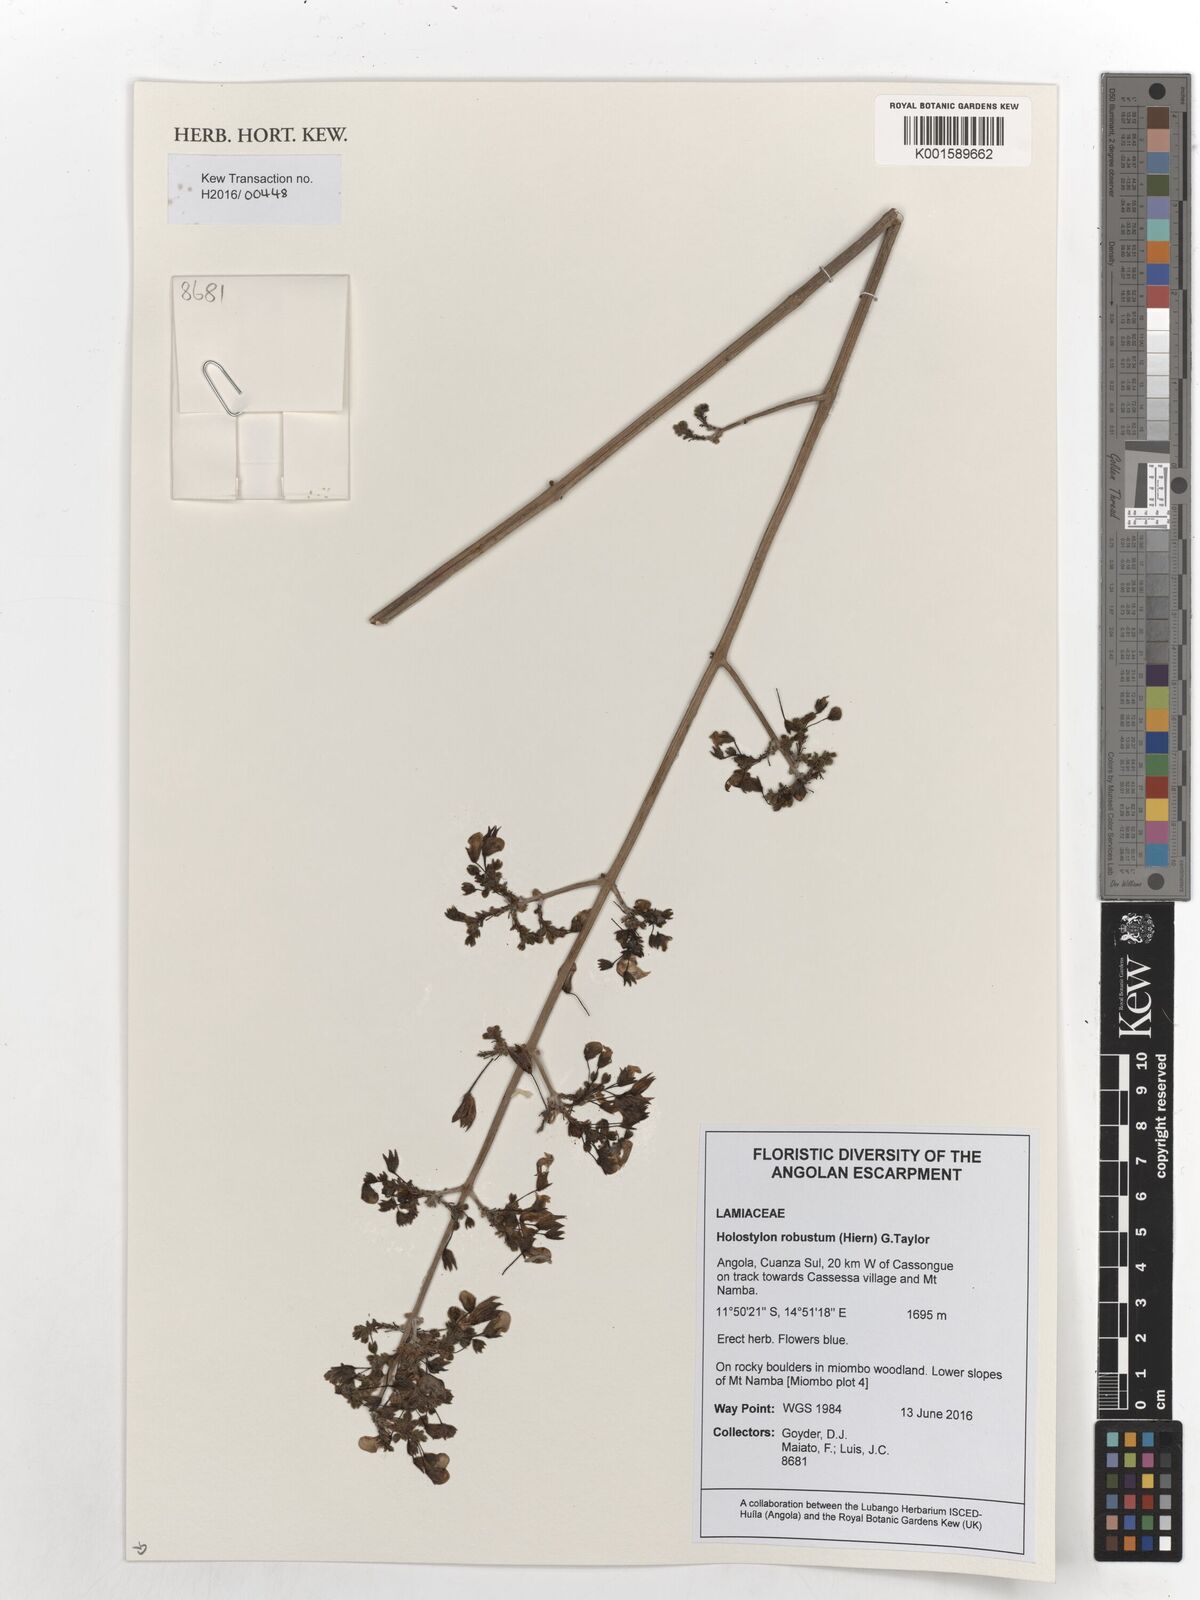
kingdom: Plantae
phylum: Tracheophyta
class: Magnoliopsida
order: Lamiales
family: Lamiaceae
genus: Coleus
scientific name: Coleus celsus
